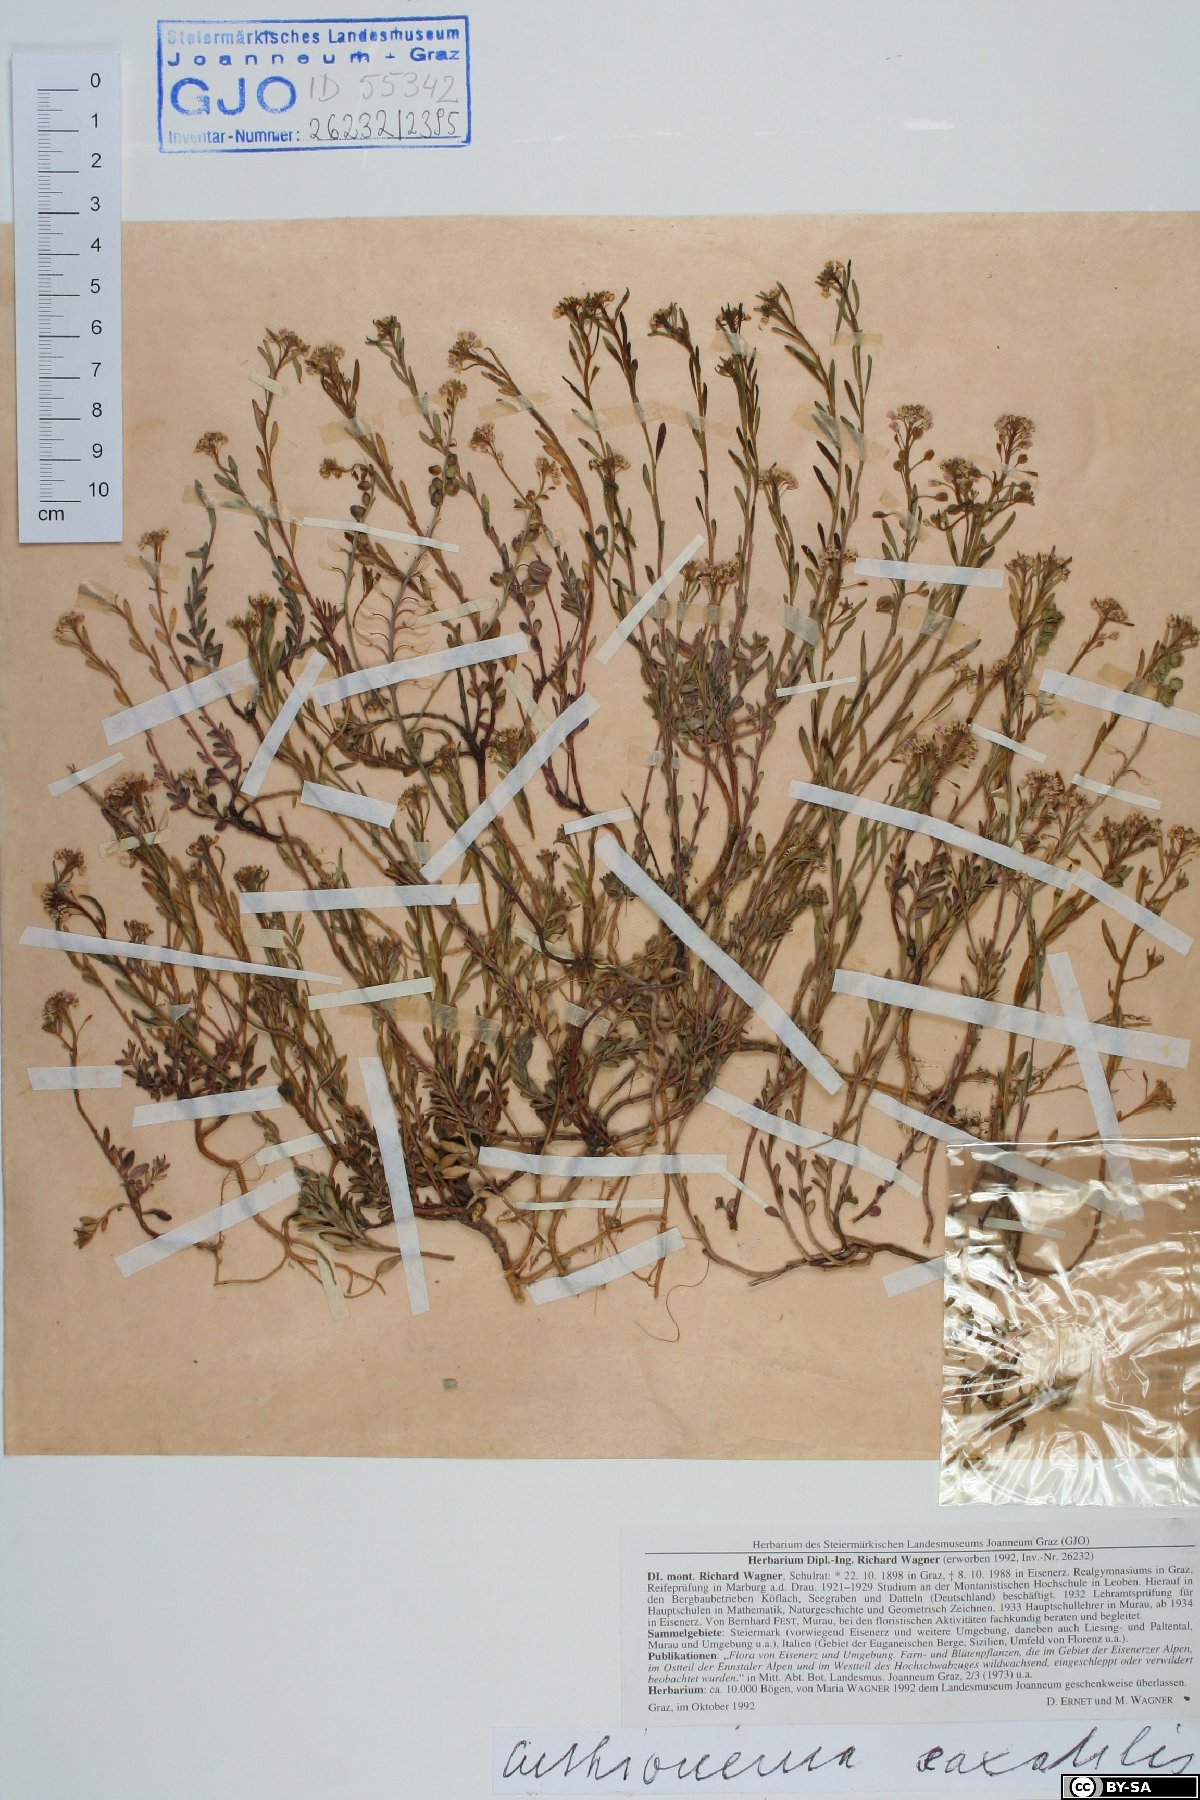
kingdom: Plantae
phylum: Tracheophyta
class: Magnoliopsida
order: Brassicales
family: Brassicaceae
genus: Aethionema
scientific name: Aethionema saxatile
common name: Burnt candytuft
